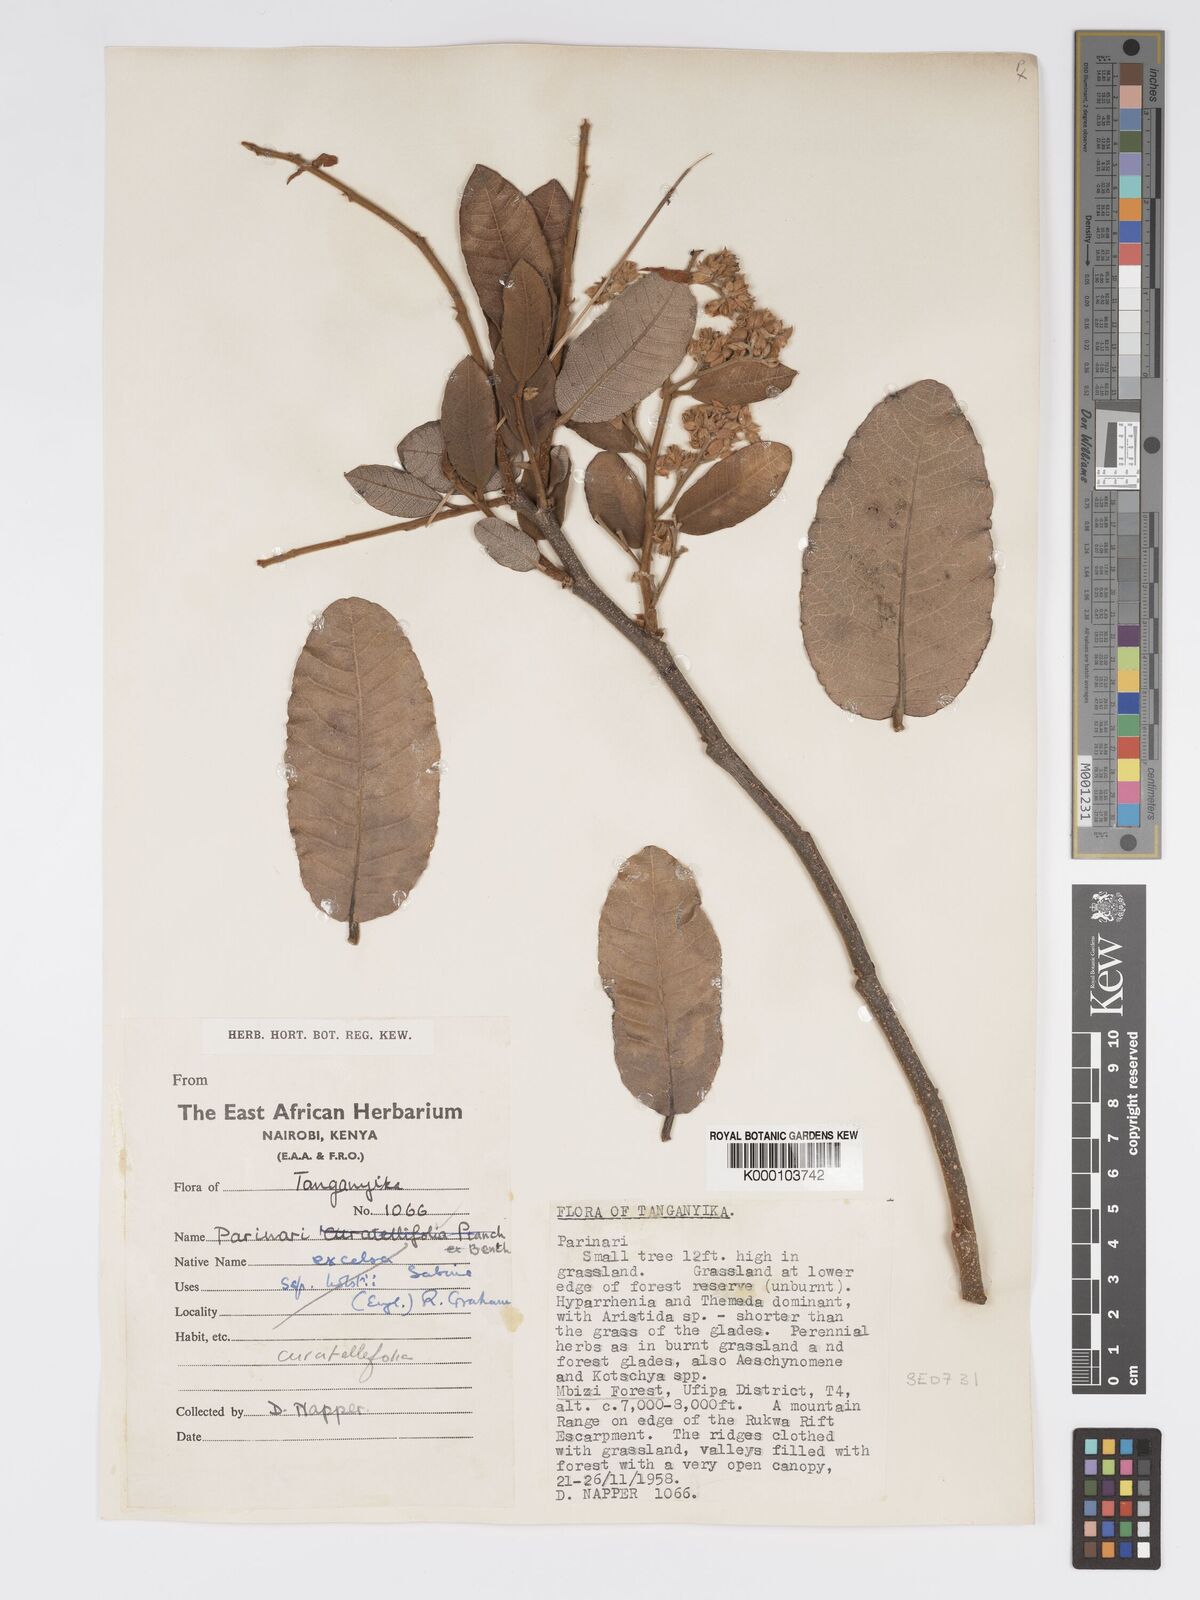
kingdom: Plantae
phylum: Tracheophyta
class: Magnoliopsida
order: Malpighiales
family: Chrysobalanaceae
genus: Parinari
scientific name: Parinari curatellifolia
